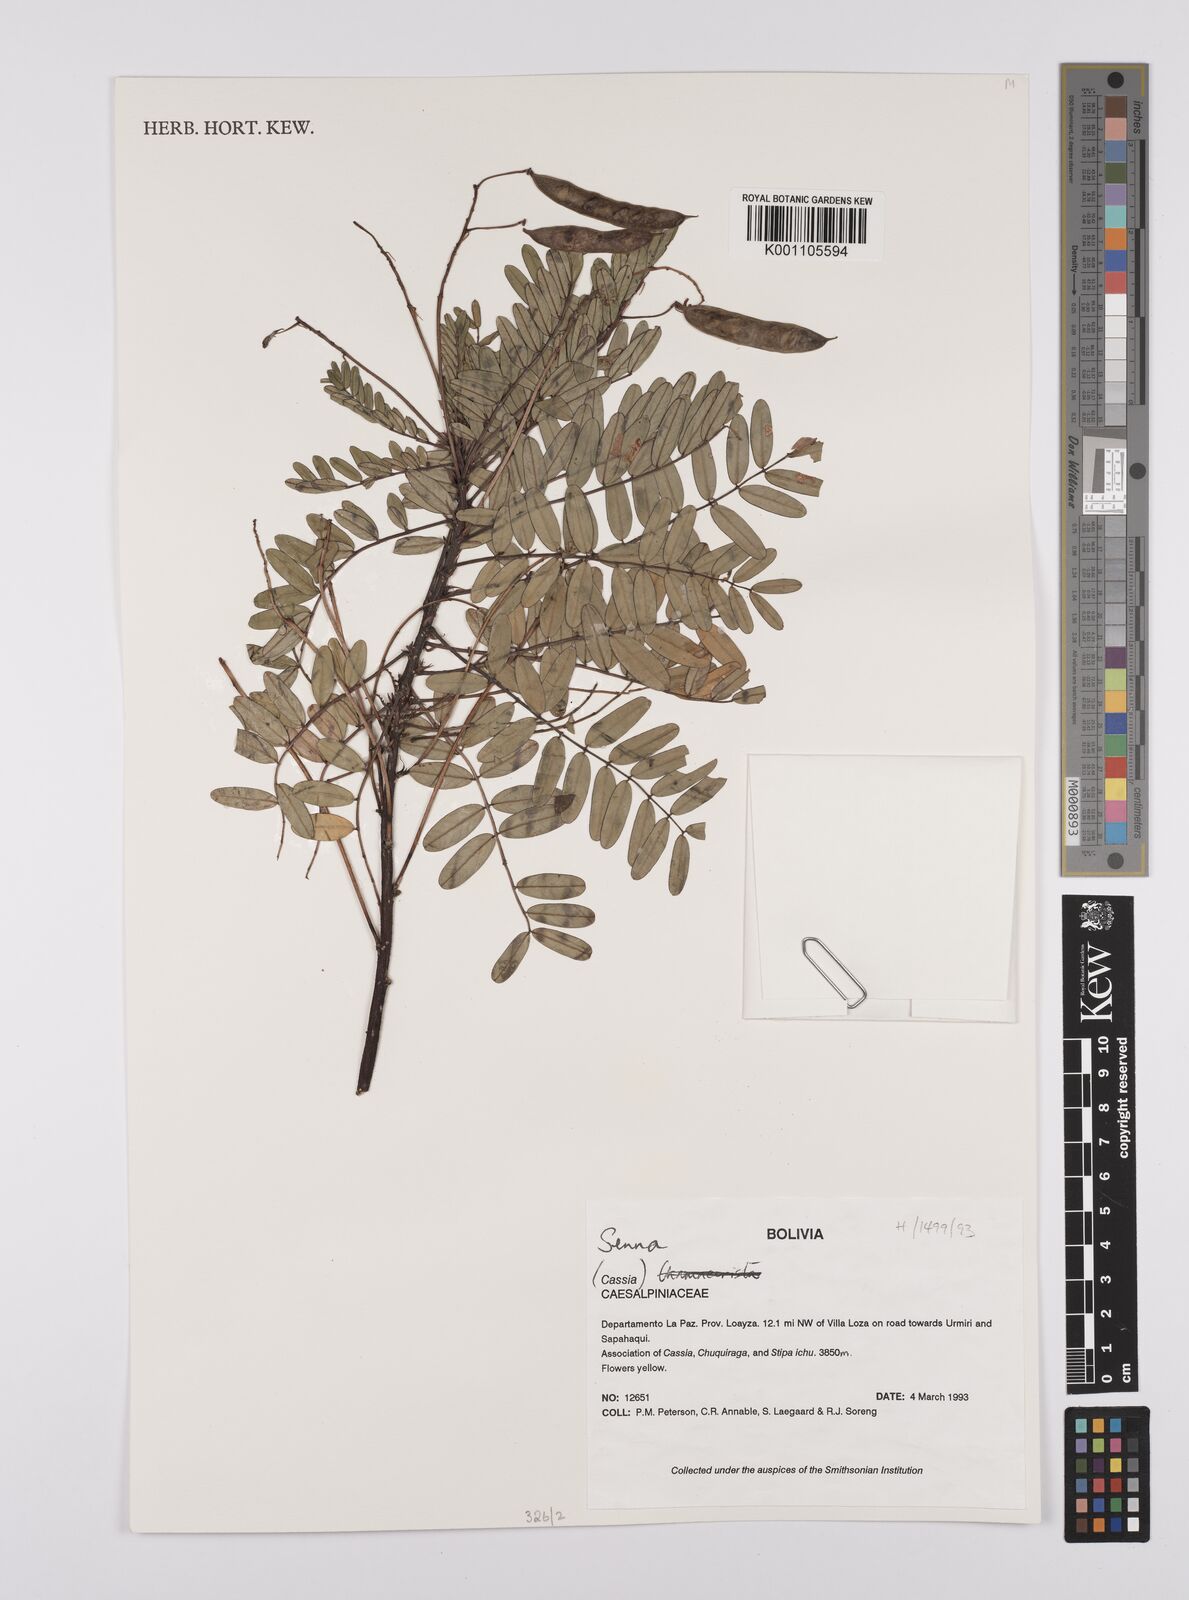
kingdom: Plantae
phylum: Tracheophyta
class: Magnoliopsida
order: Fabales
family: Fabaceae
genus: Senna
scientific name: Senna
